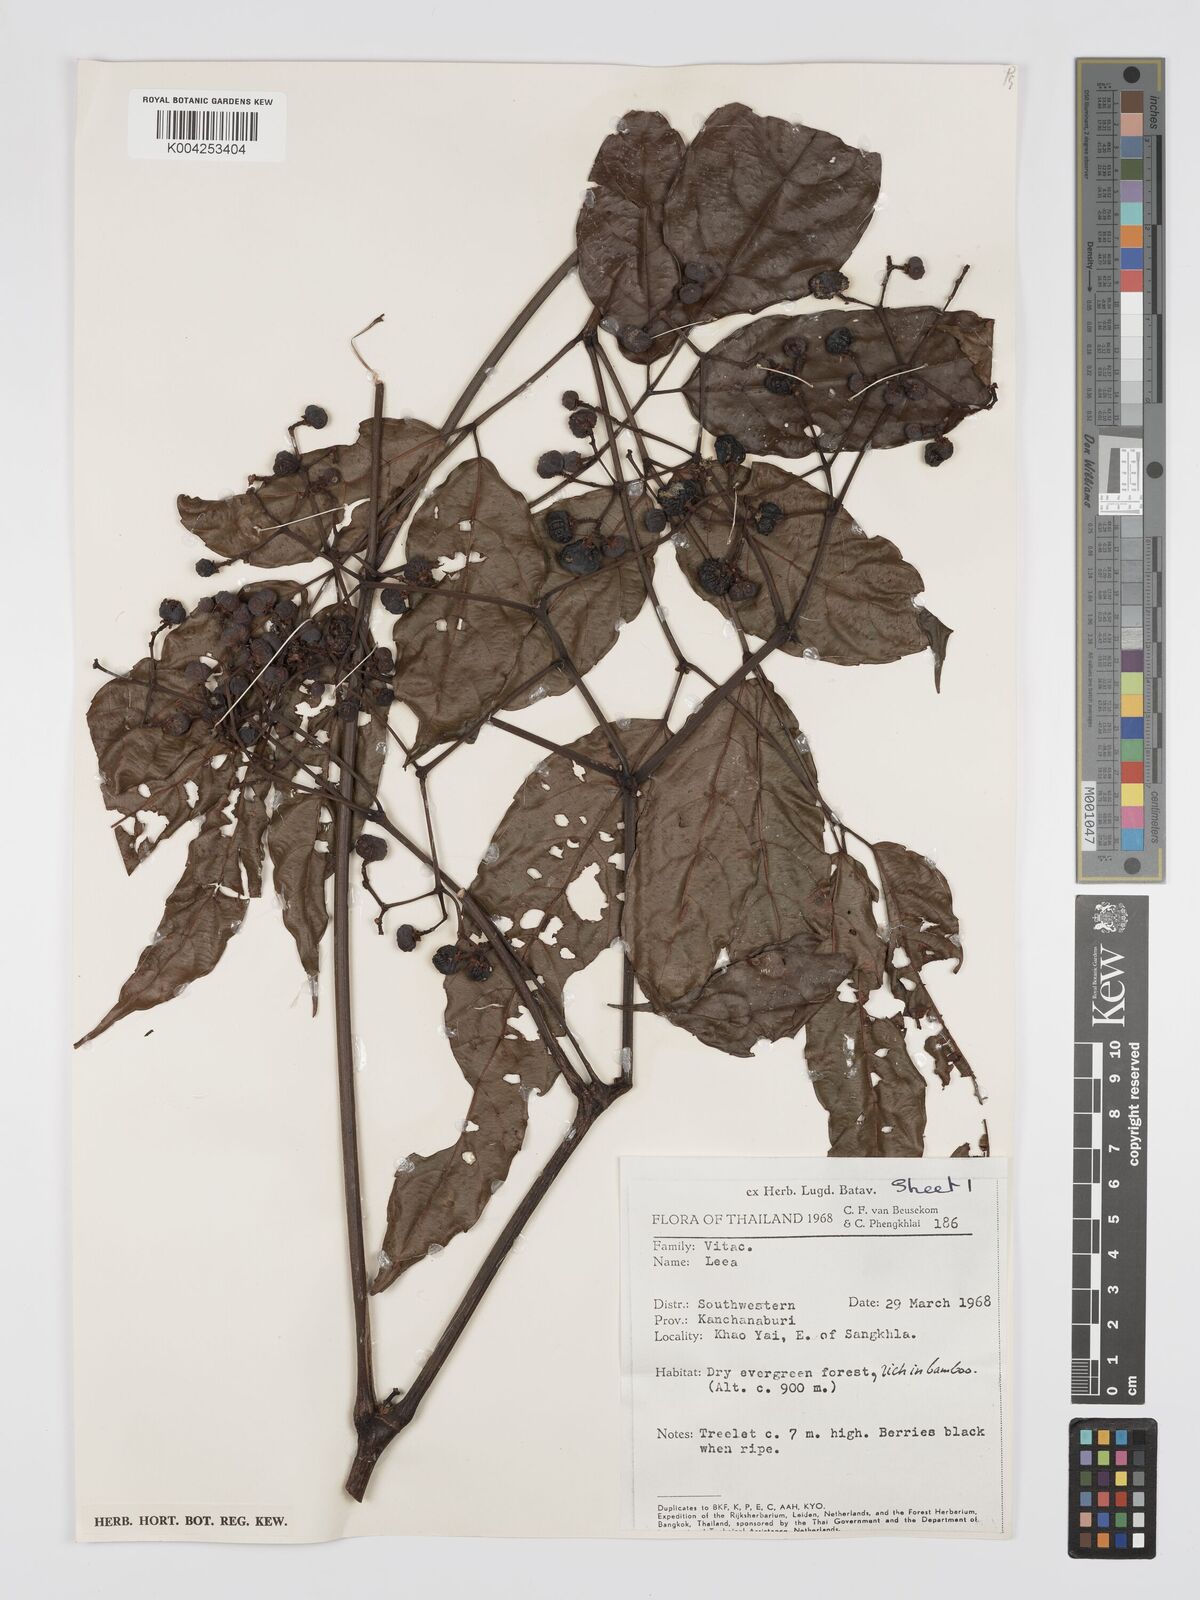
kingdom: Plantae
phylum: Tracheophyta
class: Magnoliopsida
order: Vitales
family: Vitaceae
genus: Leea
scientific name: Leea
